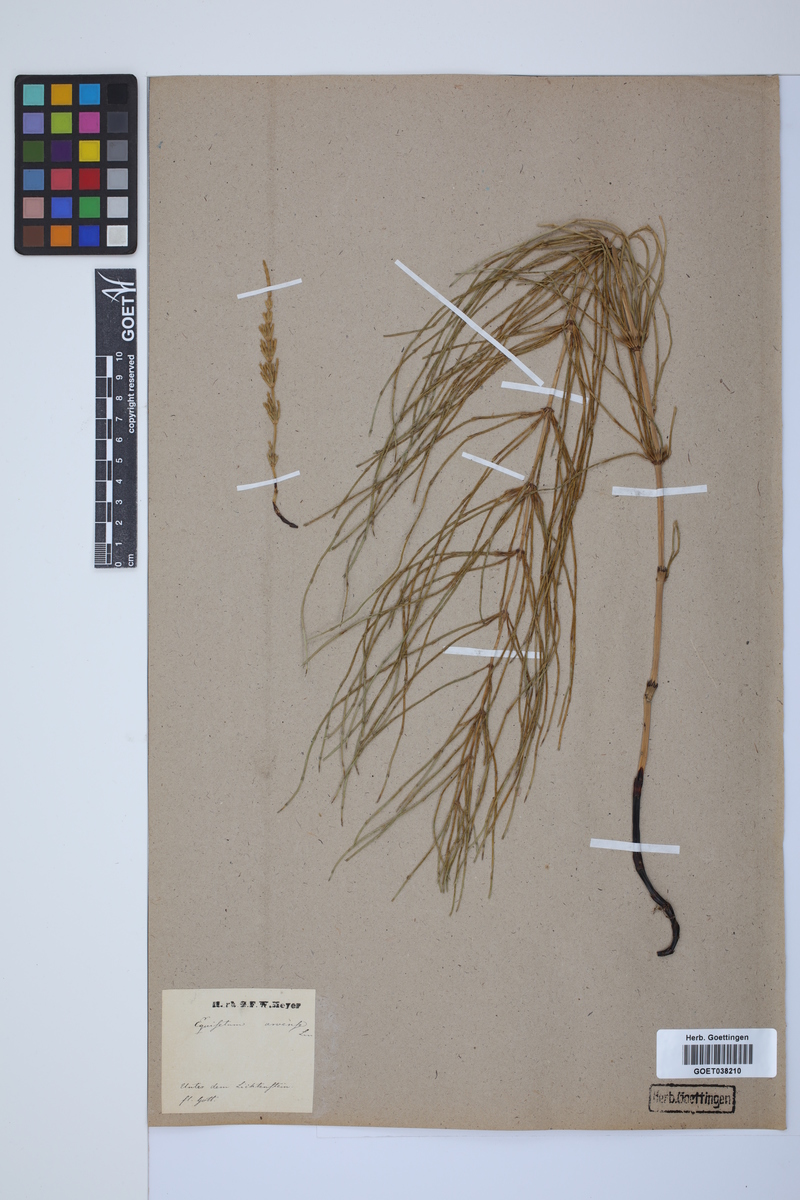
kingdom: Plantae
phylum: Tracheophyta
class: Polypodiopsida
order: Equisetales
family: Equisetaceae
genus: Equisetum
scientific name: Equisetum arvense
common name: Field horsetail
